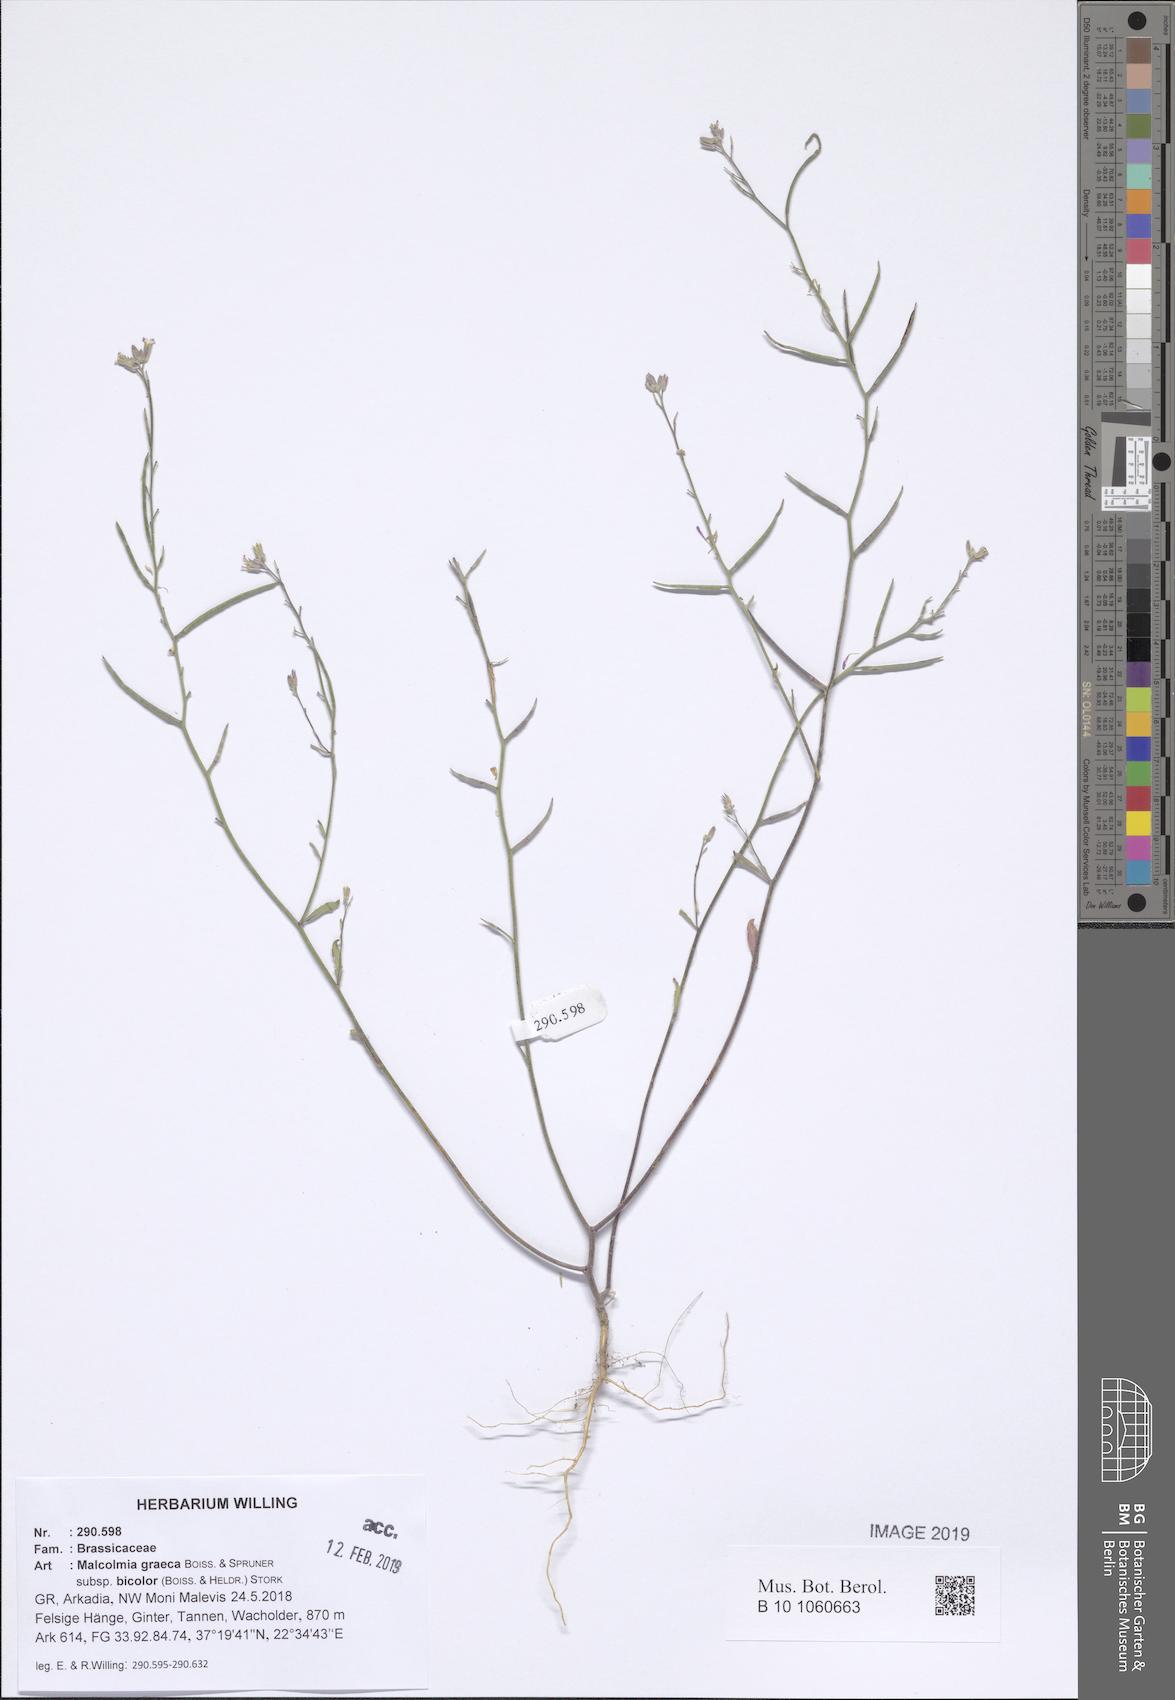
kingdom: Plantae
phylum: Tracheophyta
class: Magnoliopsida
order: Brassicales
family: Brassicaceae
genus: Malcolmia
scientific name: Malcolmia graeca
